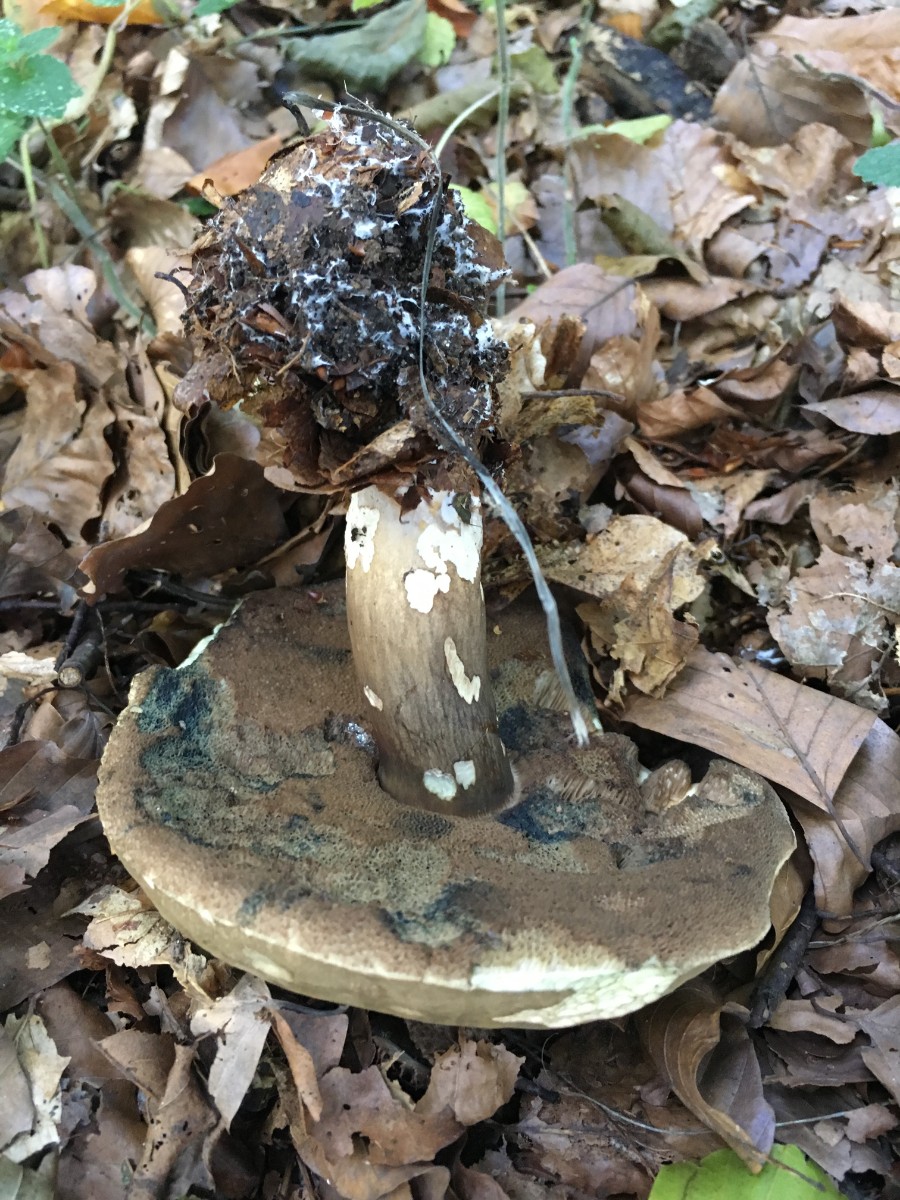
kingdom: Fungi
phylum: Basidiomycota
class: Agaricomycetes
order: Boletales
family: Boletaceae
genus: Porphyrellus
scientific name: Porphyrellus porphyrosporus
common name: sodrørhat
